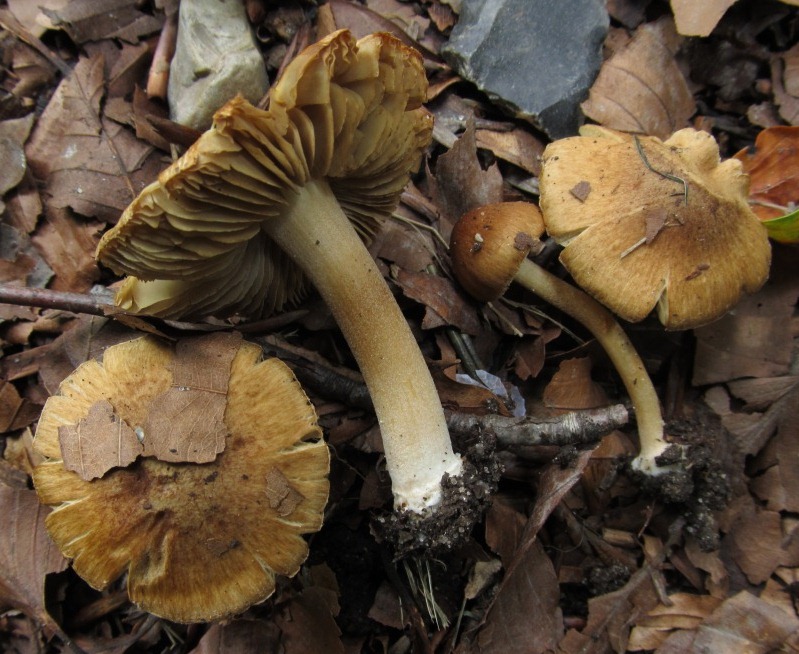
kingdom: Fungi
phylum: Basidiomycota
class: Agaricomycetes
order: Agaricales
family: Inocybaceae
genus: Inocybe
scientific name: Inocybe pelargonium
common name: pelargonie-trævlhat
